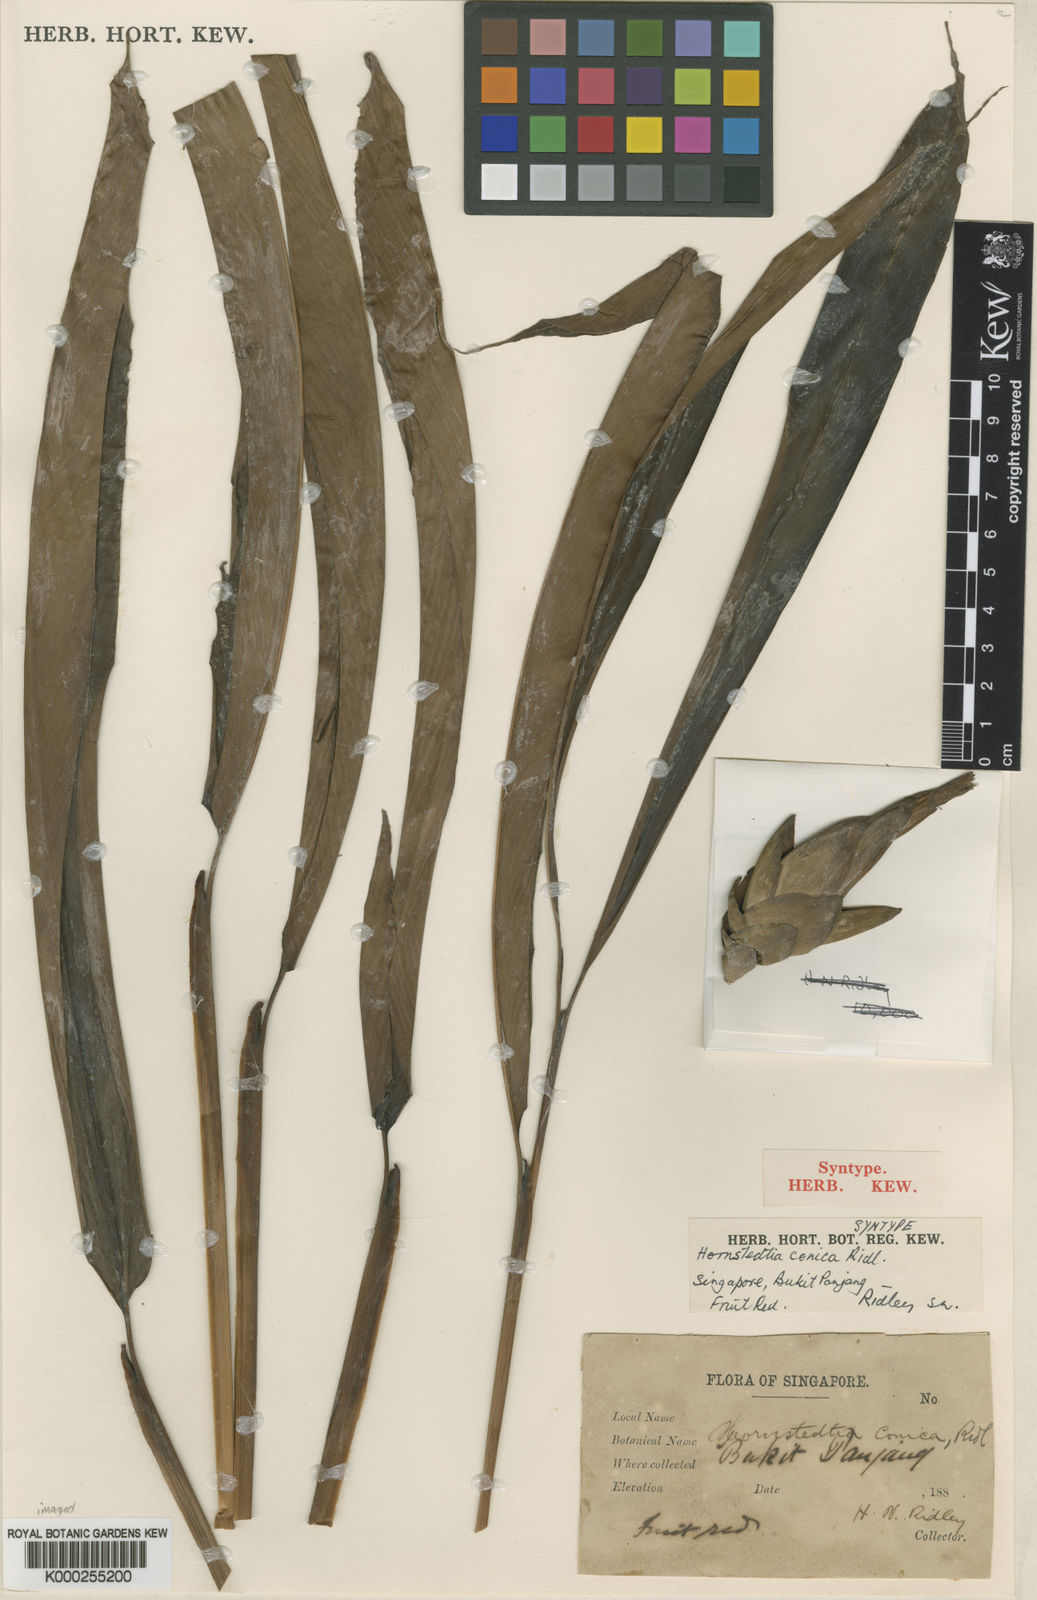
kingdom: Plantae
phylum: Tracheophyta
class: Liliopsida
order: Zingiberales
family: Zingiberaceae
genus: Hornstedtia
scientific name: Hornstedtia conica
